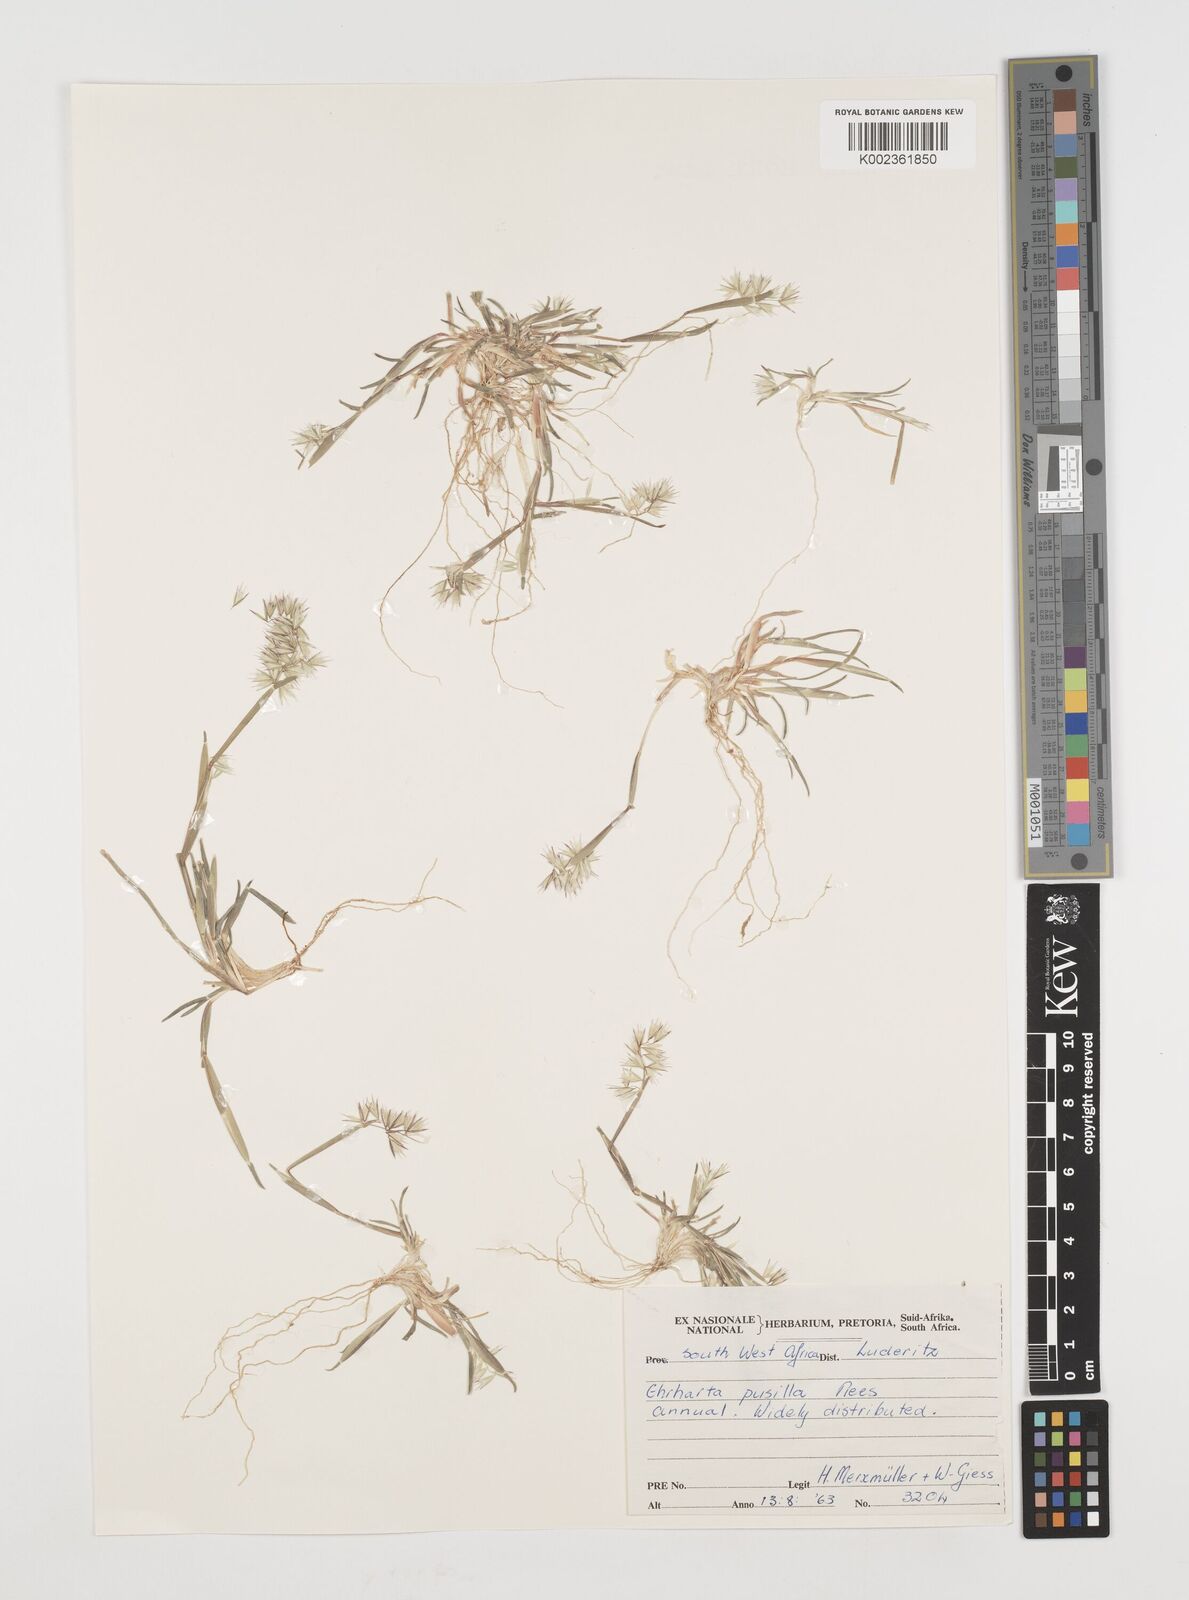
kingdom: Plantae
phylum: Tracheophyta
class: Liliopsida
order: Poales
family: Poaceae
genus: Ehrharta
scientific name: Ehrharta pusilla
